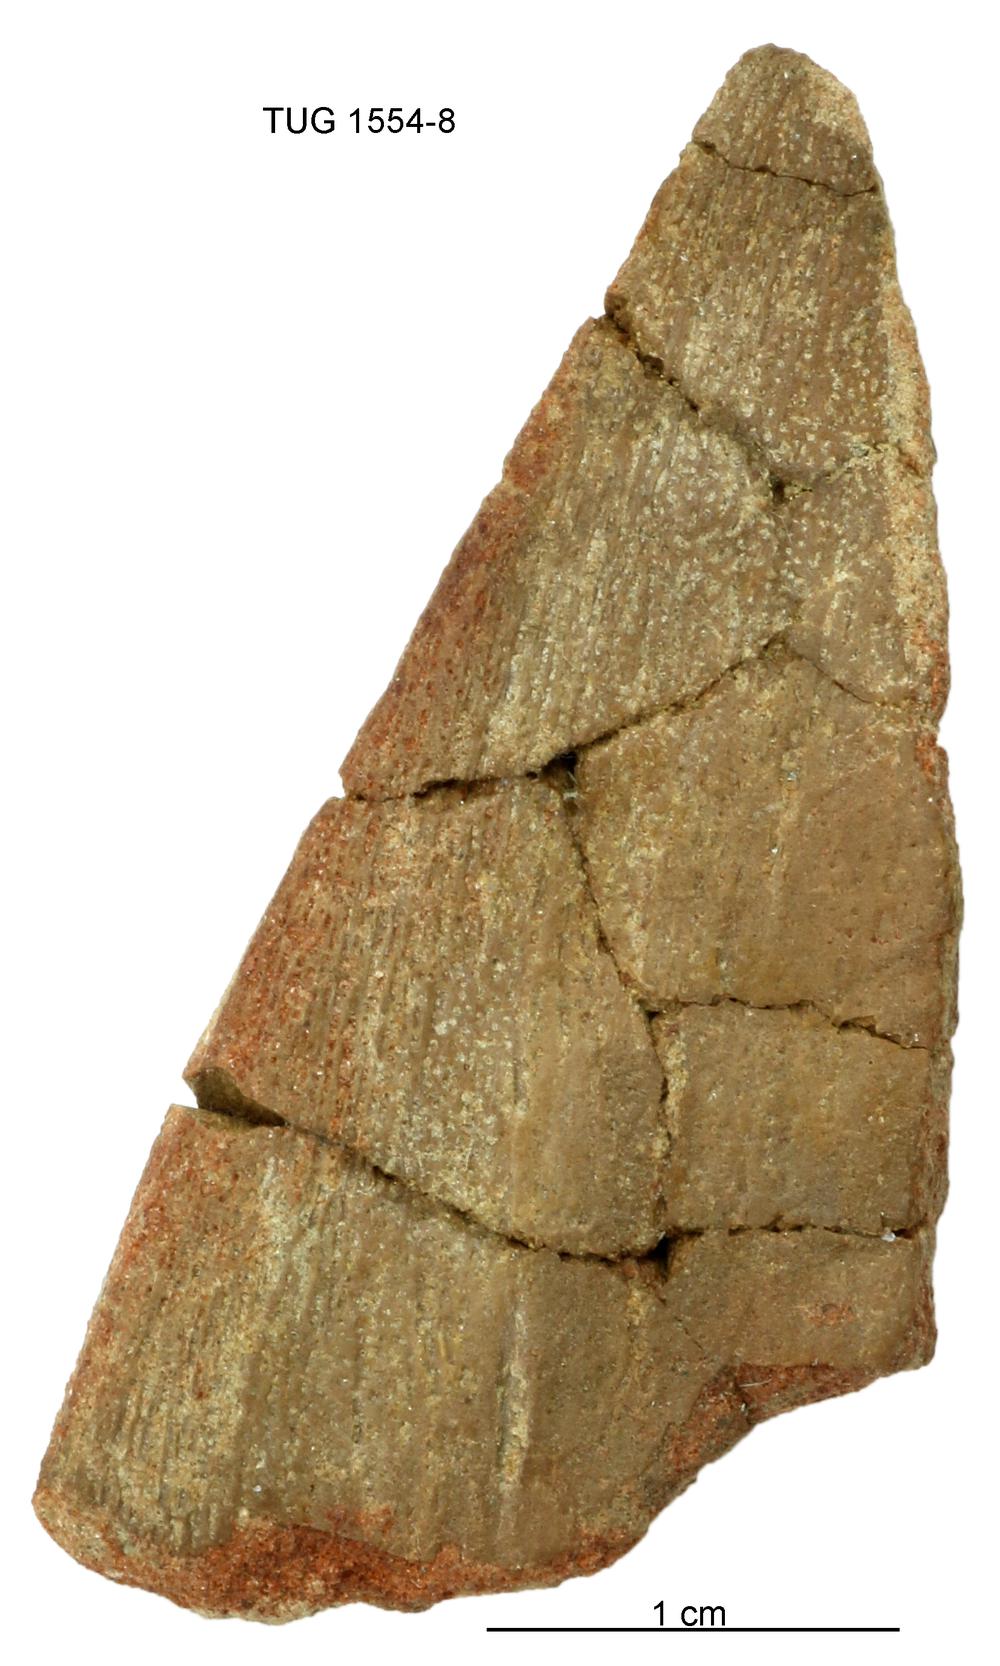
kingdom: Animalia
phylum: Chordata
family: Holonematidae
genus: Holonema
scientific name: Holonema
